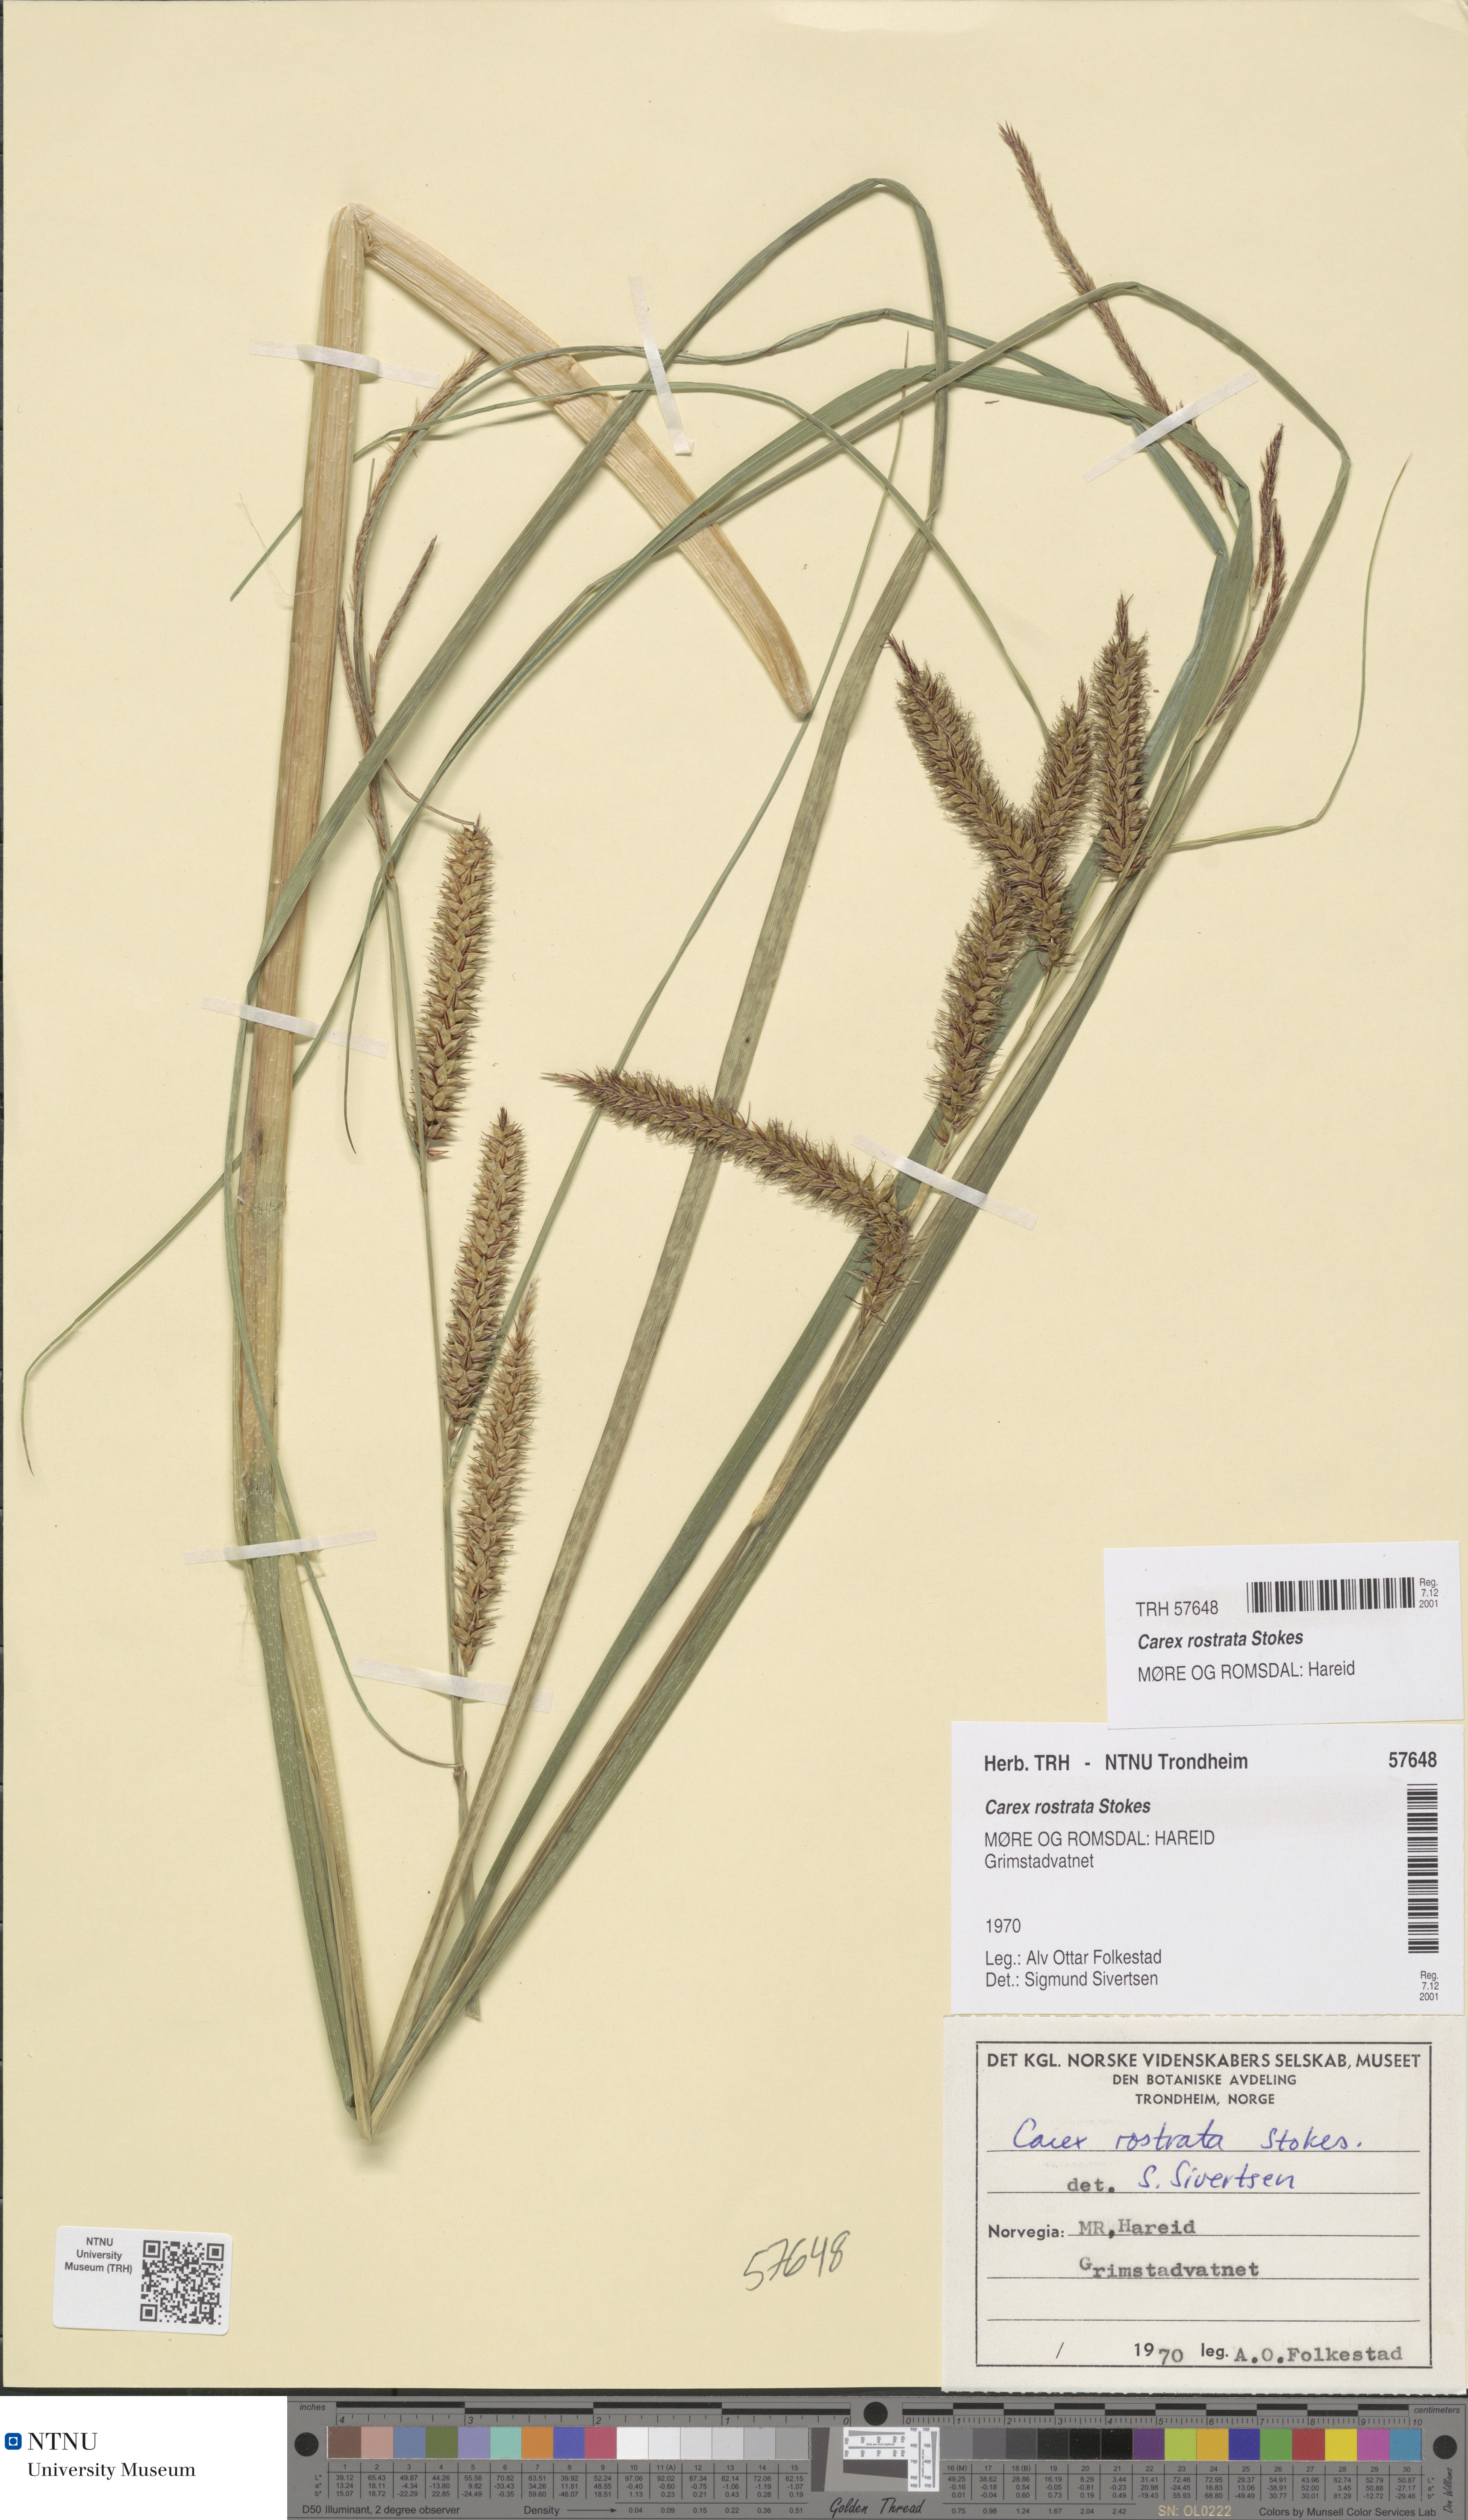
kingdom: Plantae
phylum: Tracheophyta
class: Liliopsida
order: Poales
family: Cyperaceae
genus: Carex
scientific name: Carex rostrata
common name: Bottle sedge
